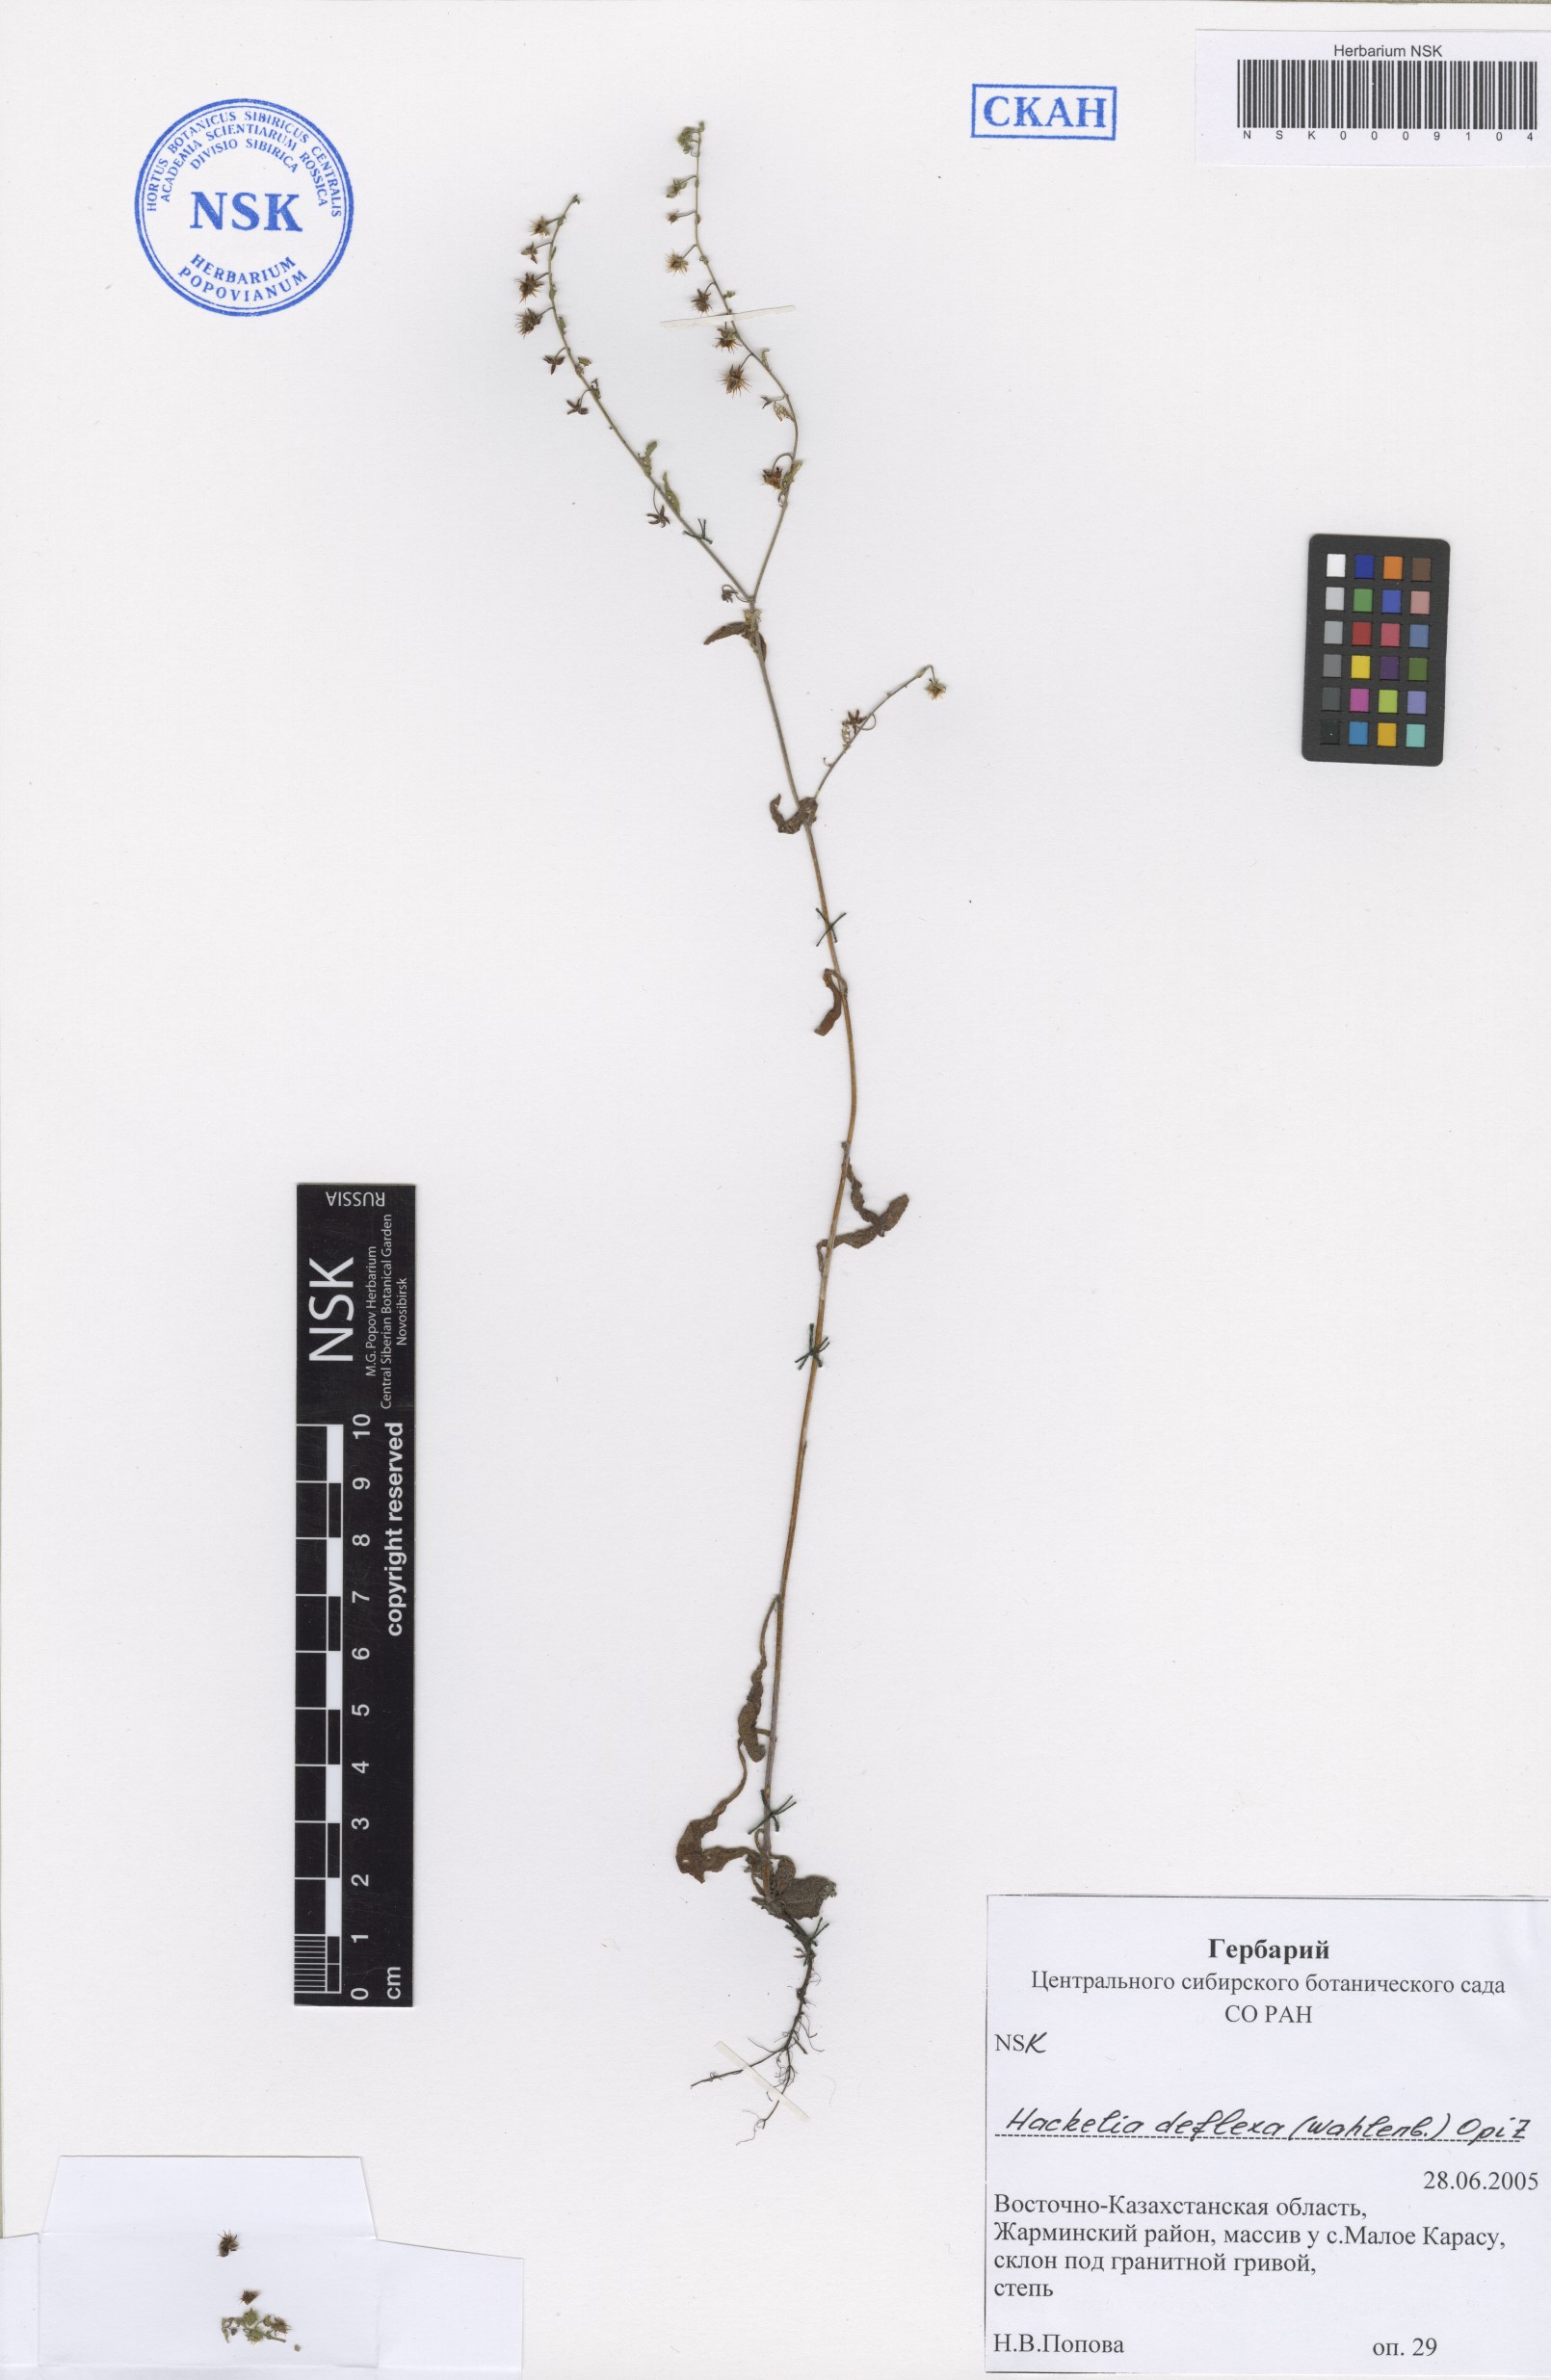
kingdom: Plantae
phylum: Tracheophyta
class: Magnoliopsida
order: Boraginales
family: Boraginaceae
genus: Hackelia
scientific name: Hackelia deflexa
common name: Nodding stickseed
